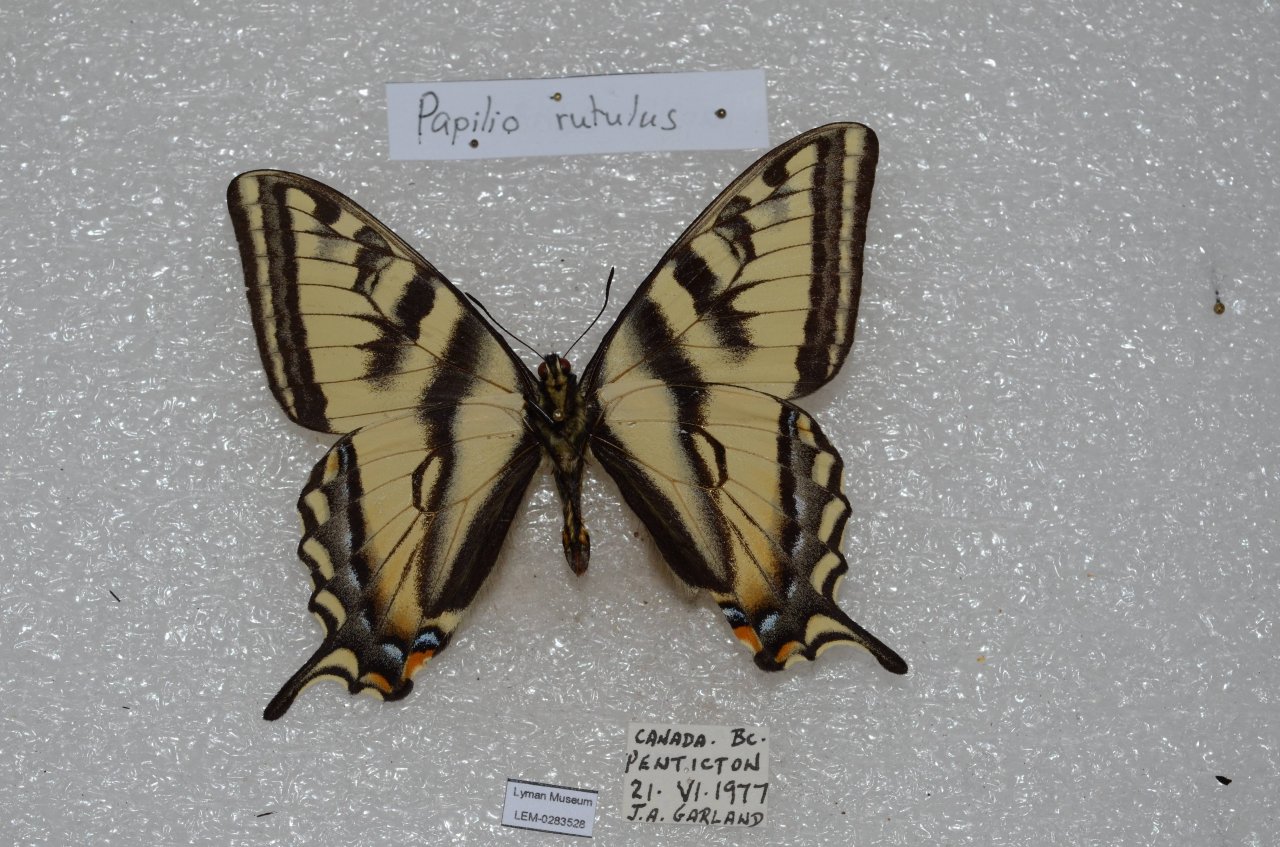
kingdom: Animalia
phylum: Arthropoda
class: Insecta
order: Lepidoptera
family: Papilionidae
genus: Pterourus
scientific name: Pterourus rutulus
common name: Western Tiger Swallowtail
